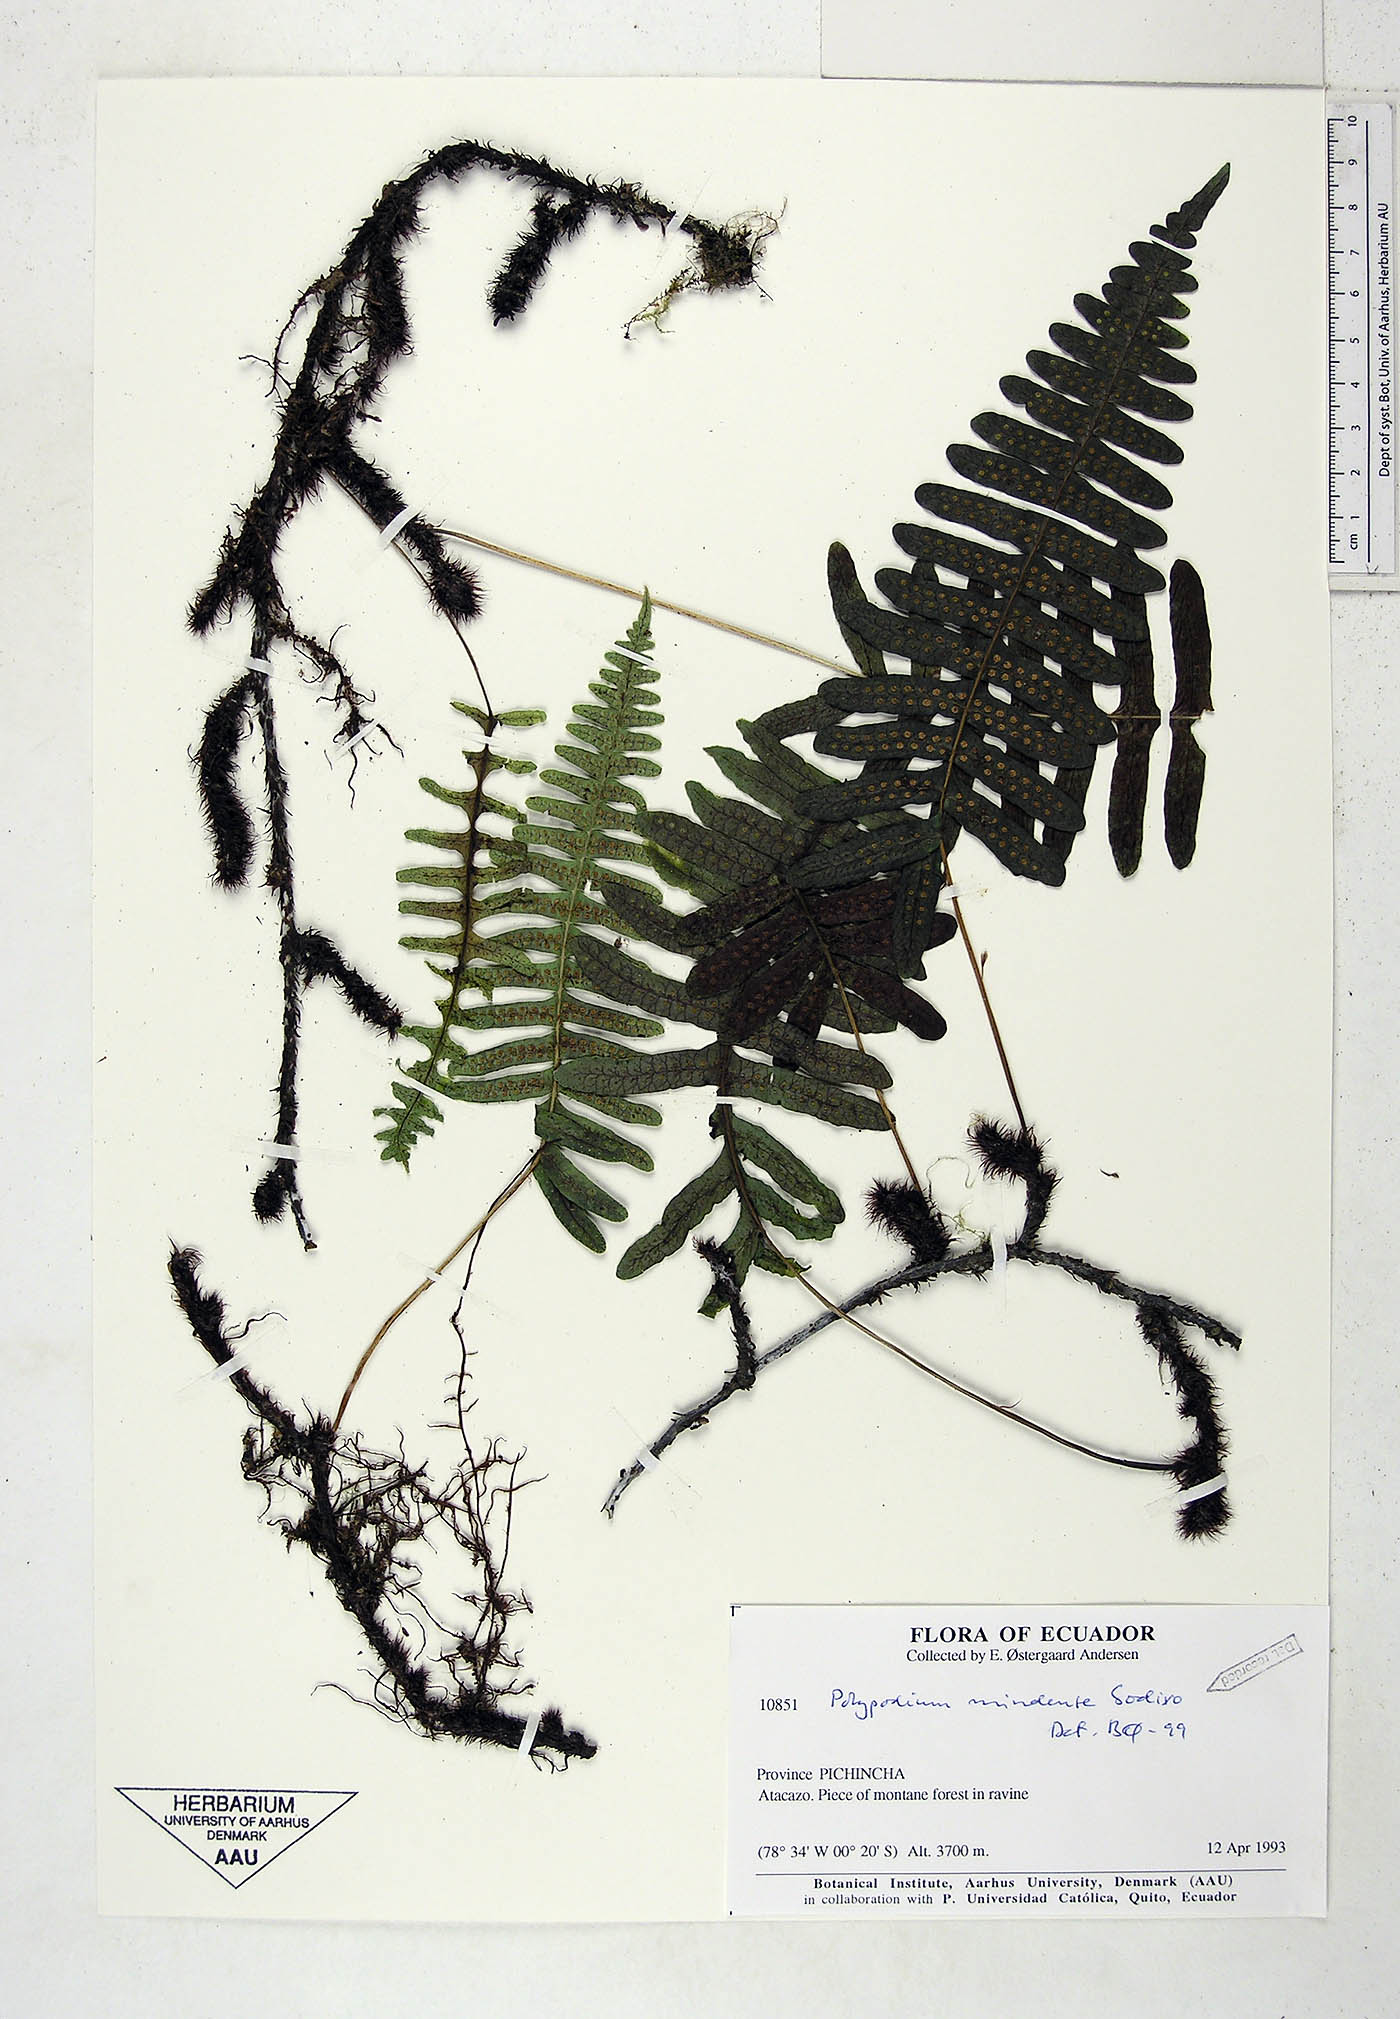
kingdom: Plantae
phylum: Tracheophyta
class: Polypodiopsida
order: Polypodiales
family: Polypodiaceae
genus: Serpocaulon
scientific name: Serpocaulon eleutherophlebium
